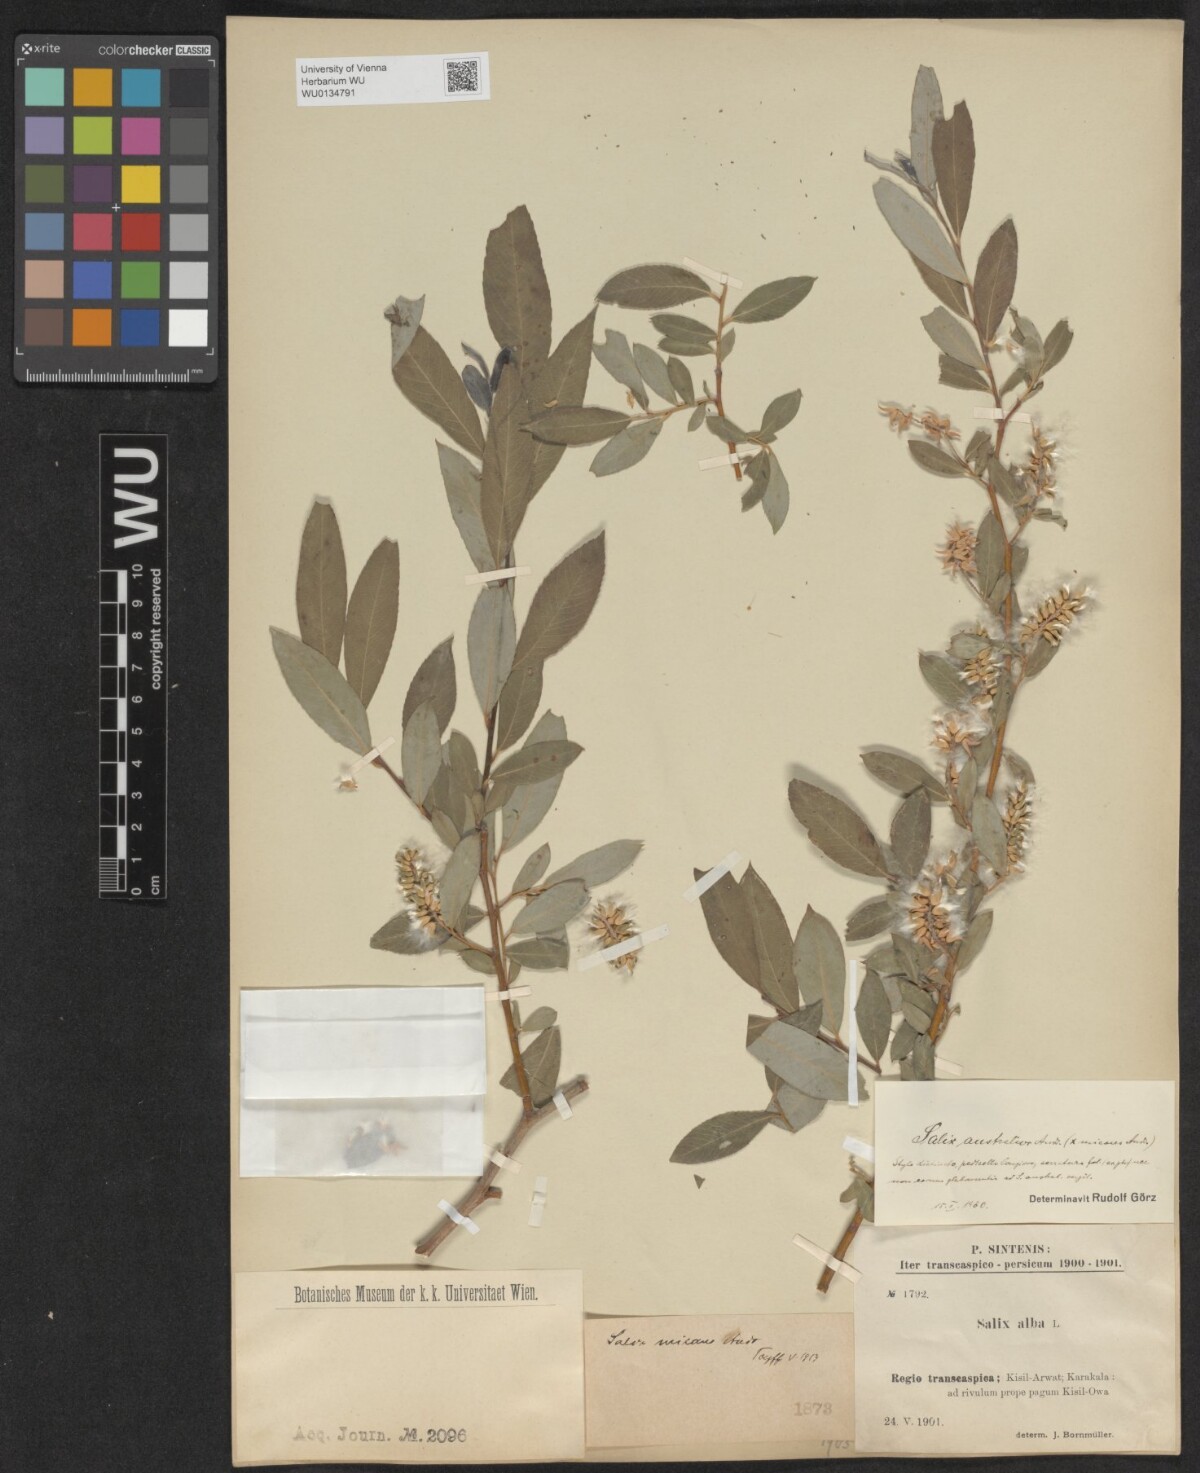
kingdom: Plantae
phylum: Tracheophyta
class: Magnoliopsida
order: Malpighiales
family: Salicaceae
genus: Salix
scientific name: Salix excelsa
